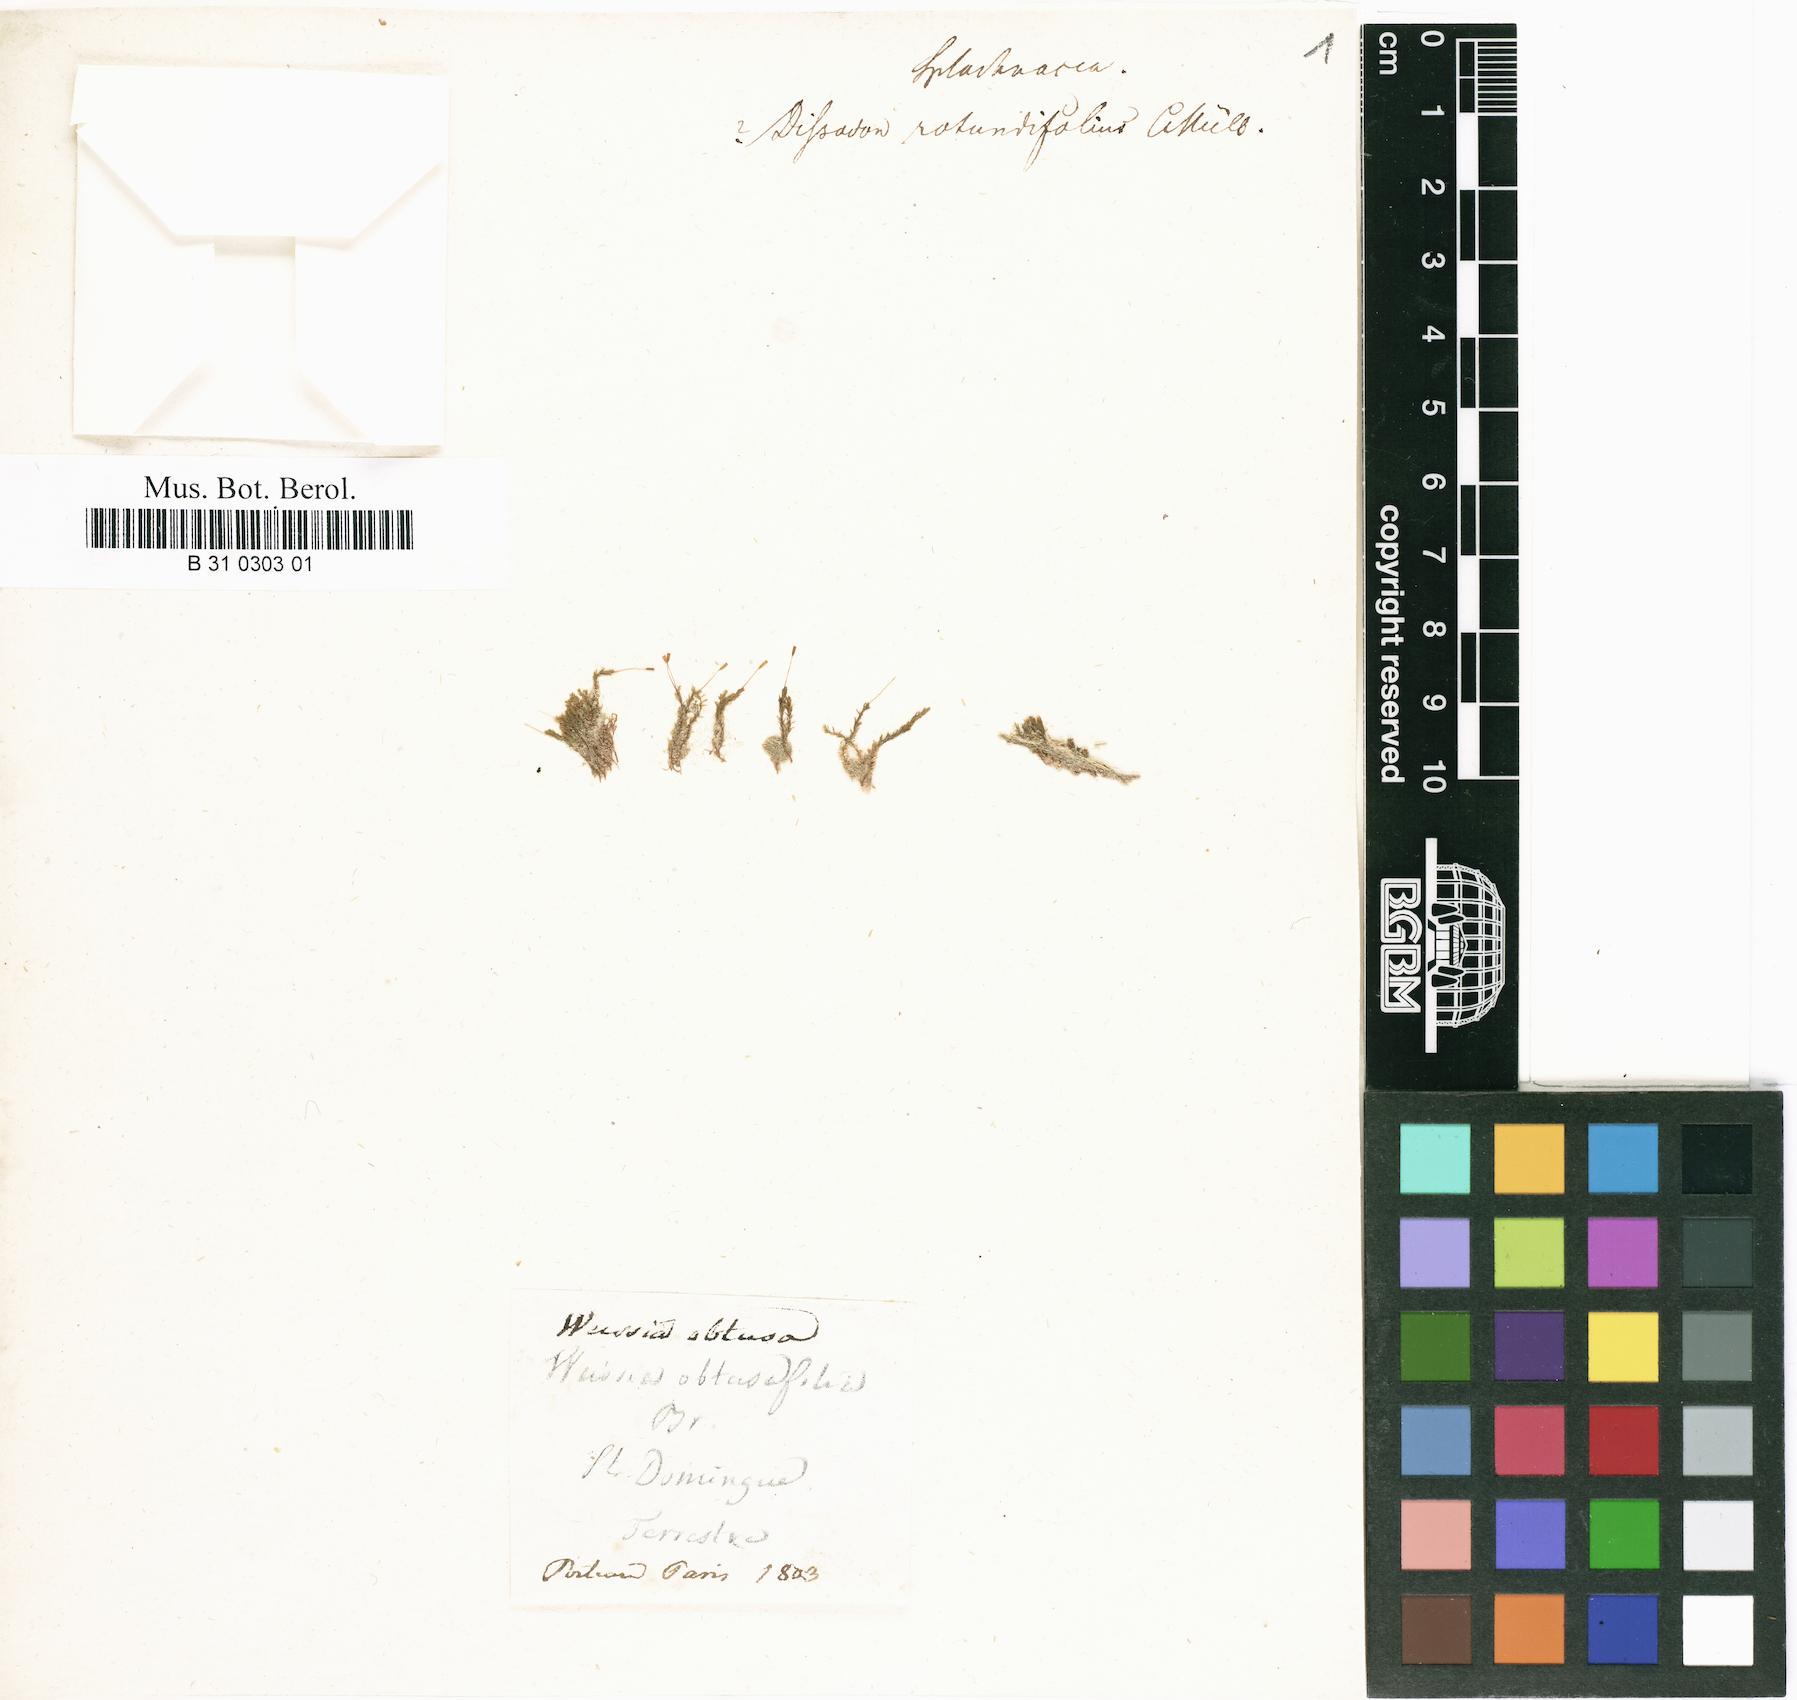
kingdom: Plantae
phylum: Bryophyta
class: Bryopsida
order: Pottiales
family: Splachnobryaceae
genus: Splachnobryum
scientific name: Splachnobryum obtusum
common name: Splachnobryum moss
